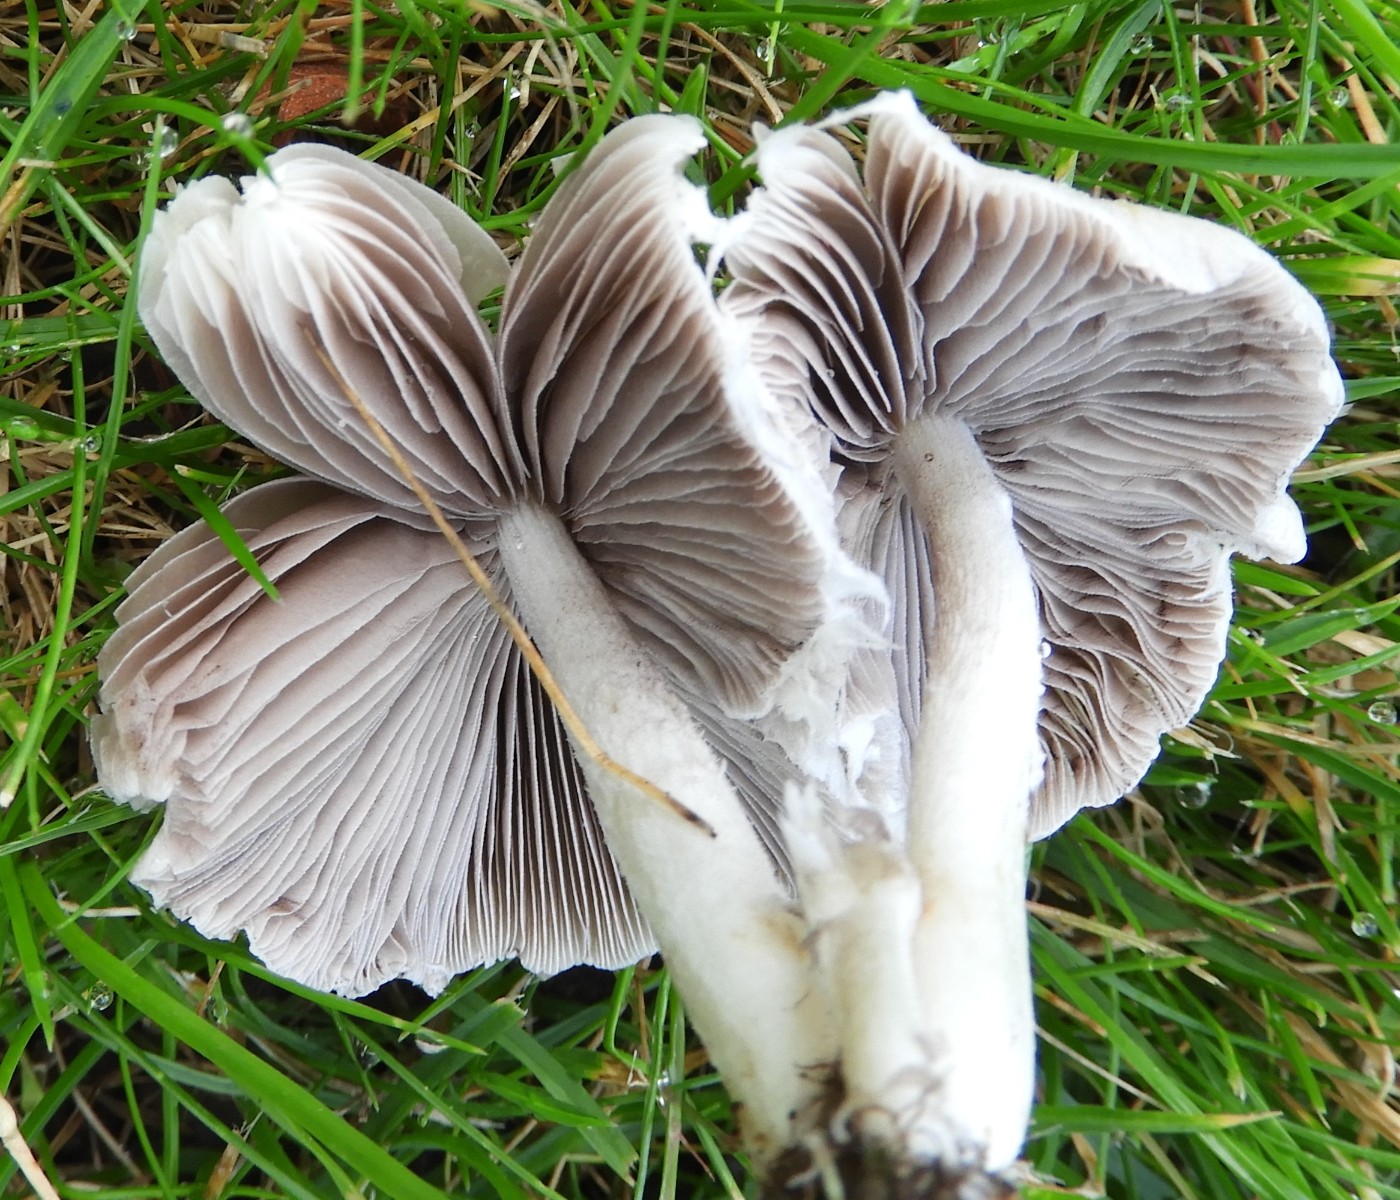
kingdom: Fungi
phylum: Basidiomycota
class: Agaricomycetes
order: Agaricales
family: Psathyrellaceae
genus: Candolleomyces
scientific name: Candolleomyces candolleanus
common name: Candolles mørkhat
